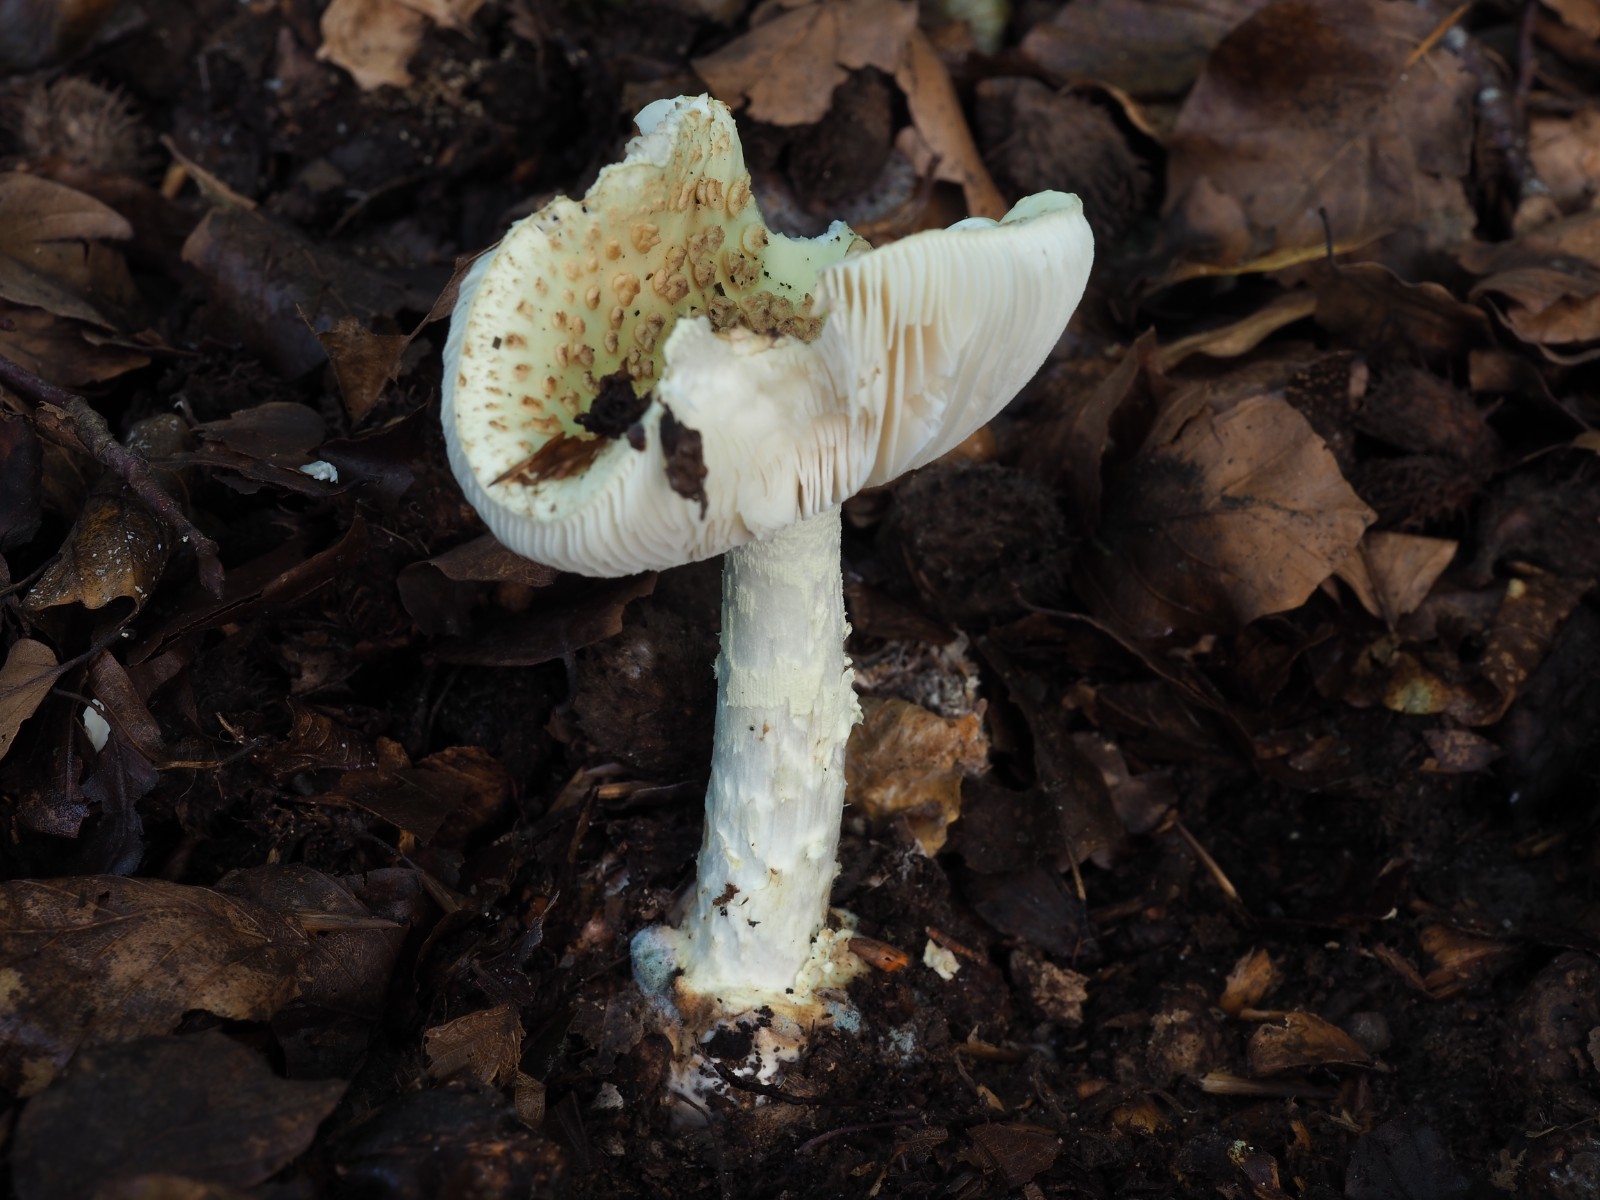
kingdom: Fungi
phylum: Basidiomycota
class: Agaricomycetes
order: Agaricales
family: Amanitaceae
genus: Amanita
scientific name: Amanita citrina
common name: kugleknoldet fluesvamp
